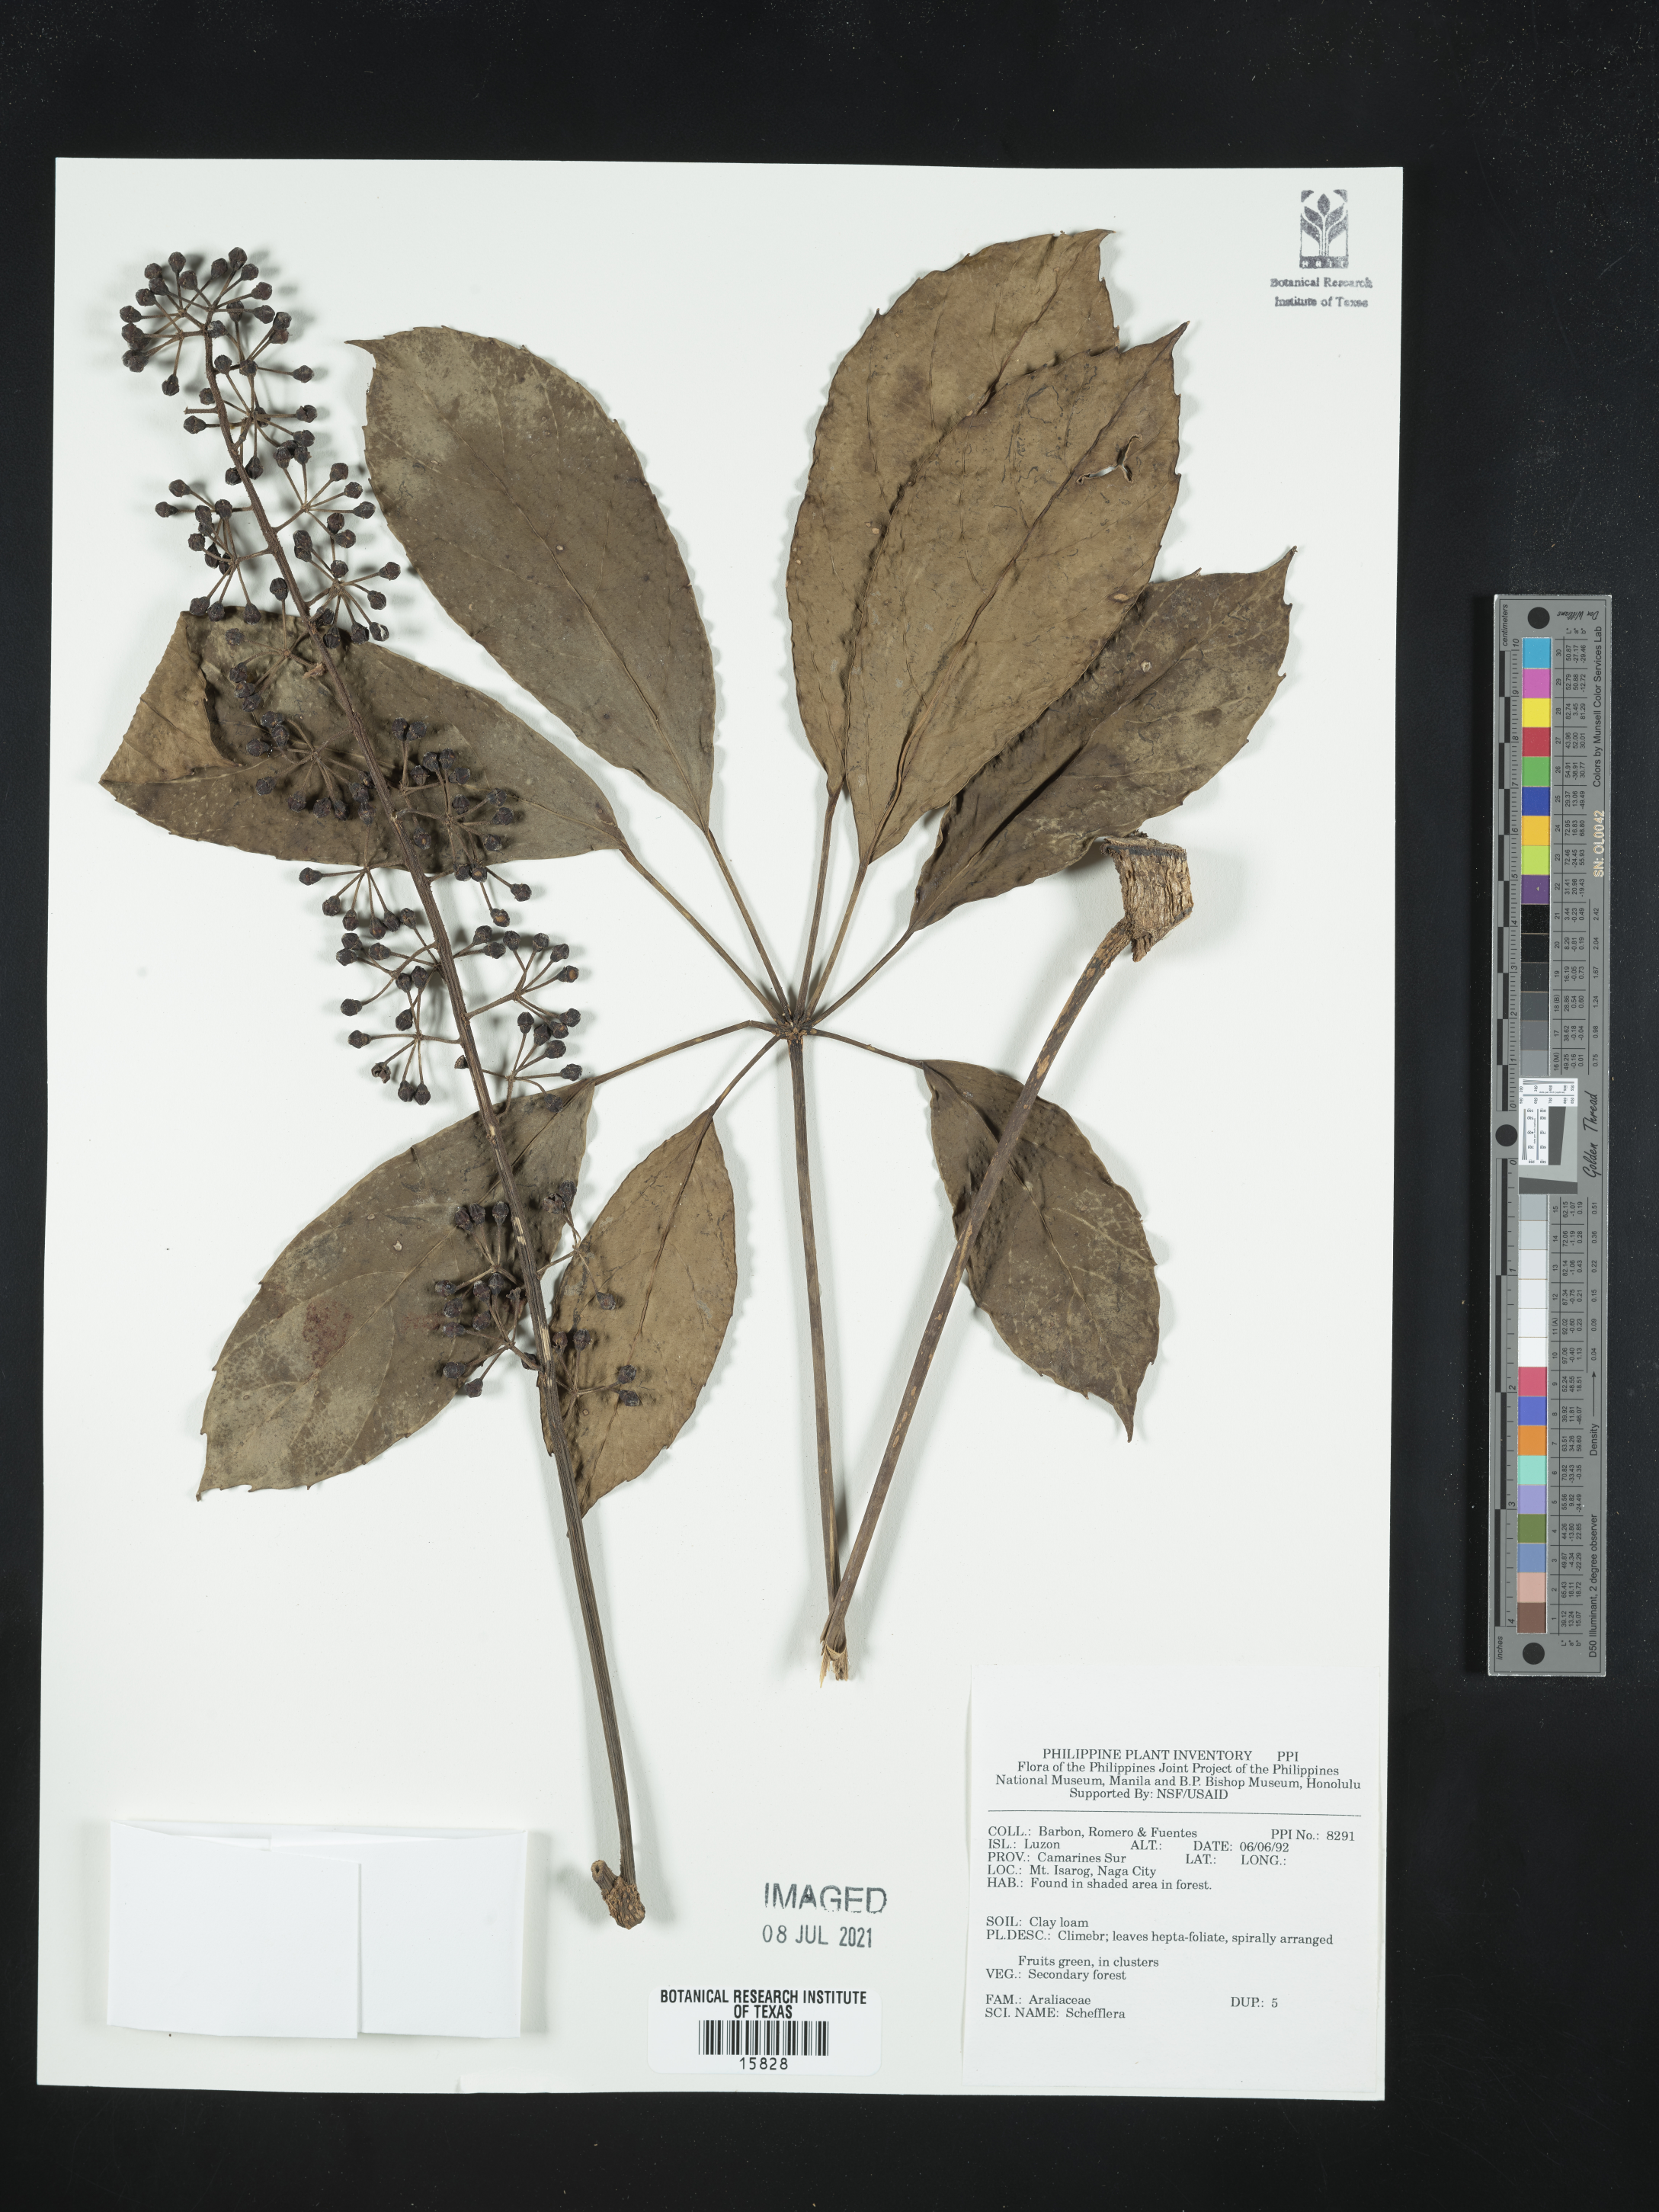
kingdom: Plantae
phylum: Tracheophyta
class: Magnoliopsida
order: Apiales
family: Araliaceae
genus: Schefflera
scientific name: Schefflera
